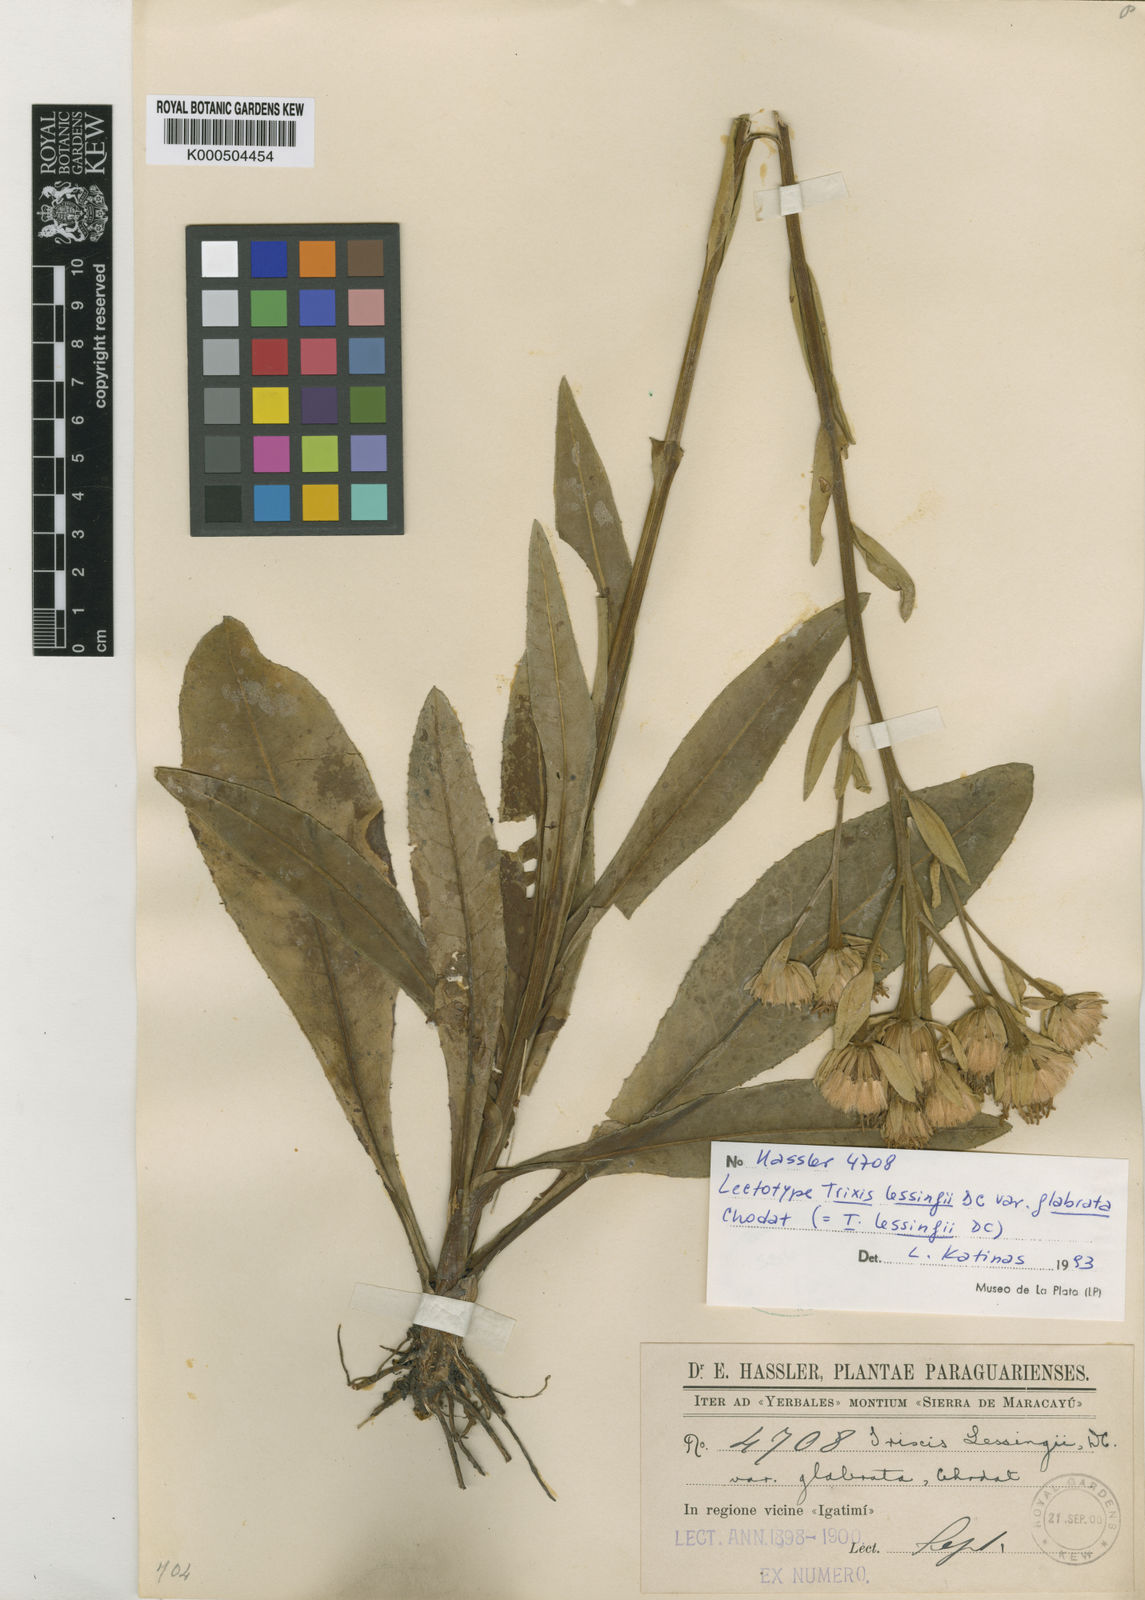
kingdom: Plantae
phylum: Tracheophyta
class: Magnoliopsida
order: Asterales
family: Asteraceae
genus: Trixis
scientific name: Trixis lessingii
